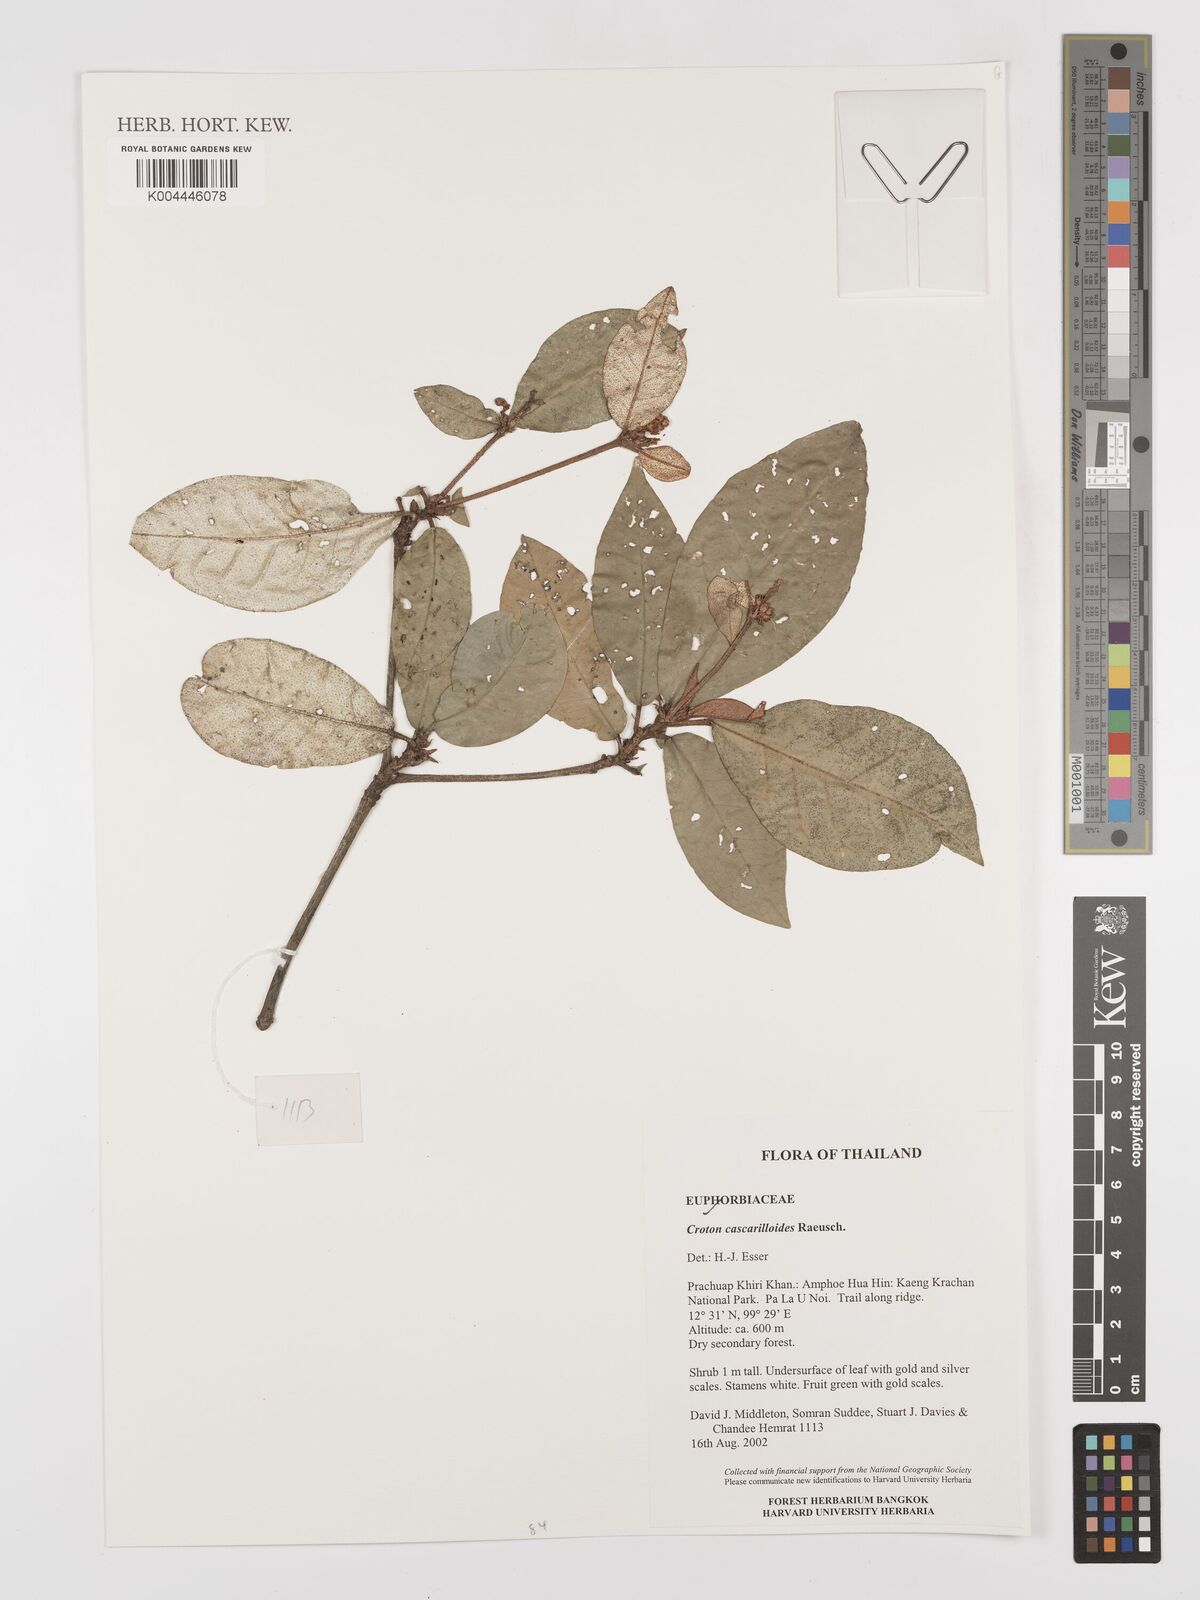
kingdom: Plantae
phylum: Tracheophyta
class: Magnoliopsida
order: Malpighiales
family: Euphorbiaceae
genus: Croton
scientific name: Croton cascarilloides
